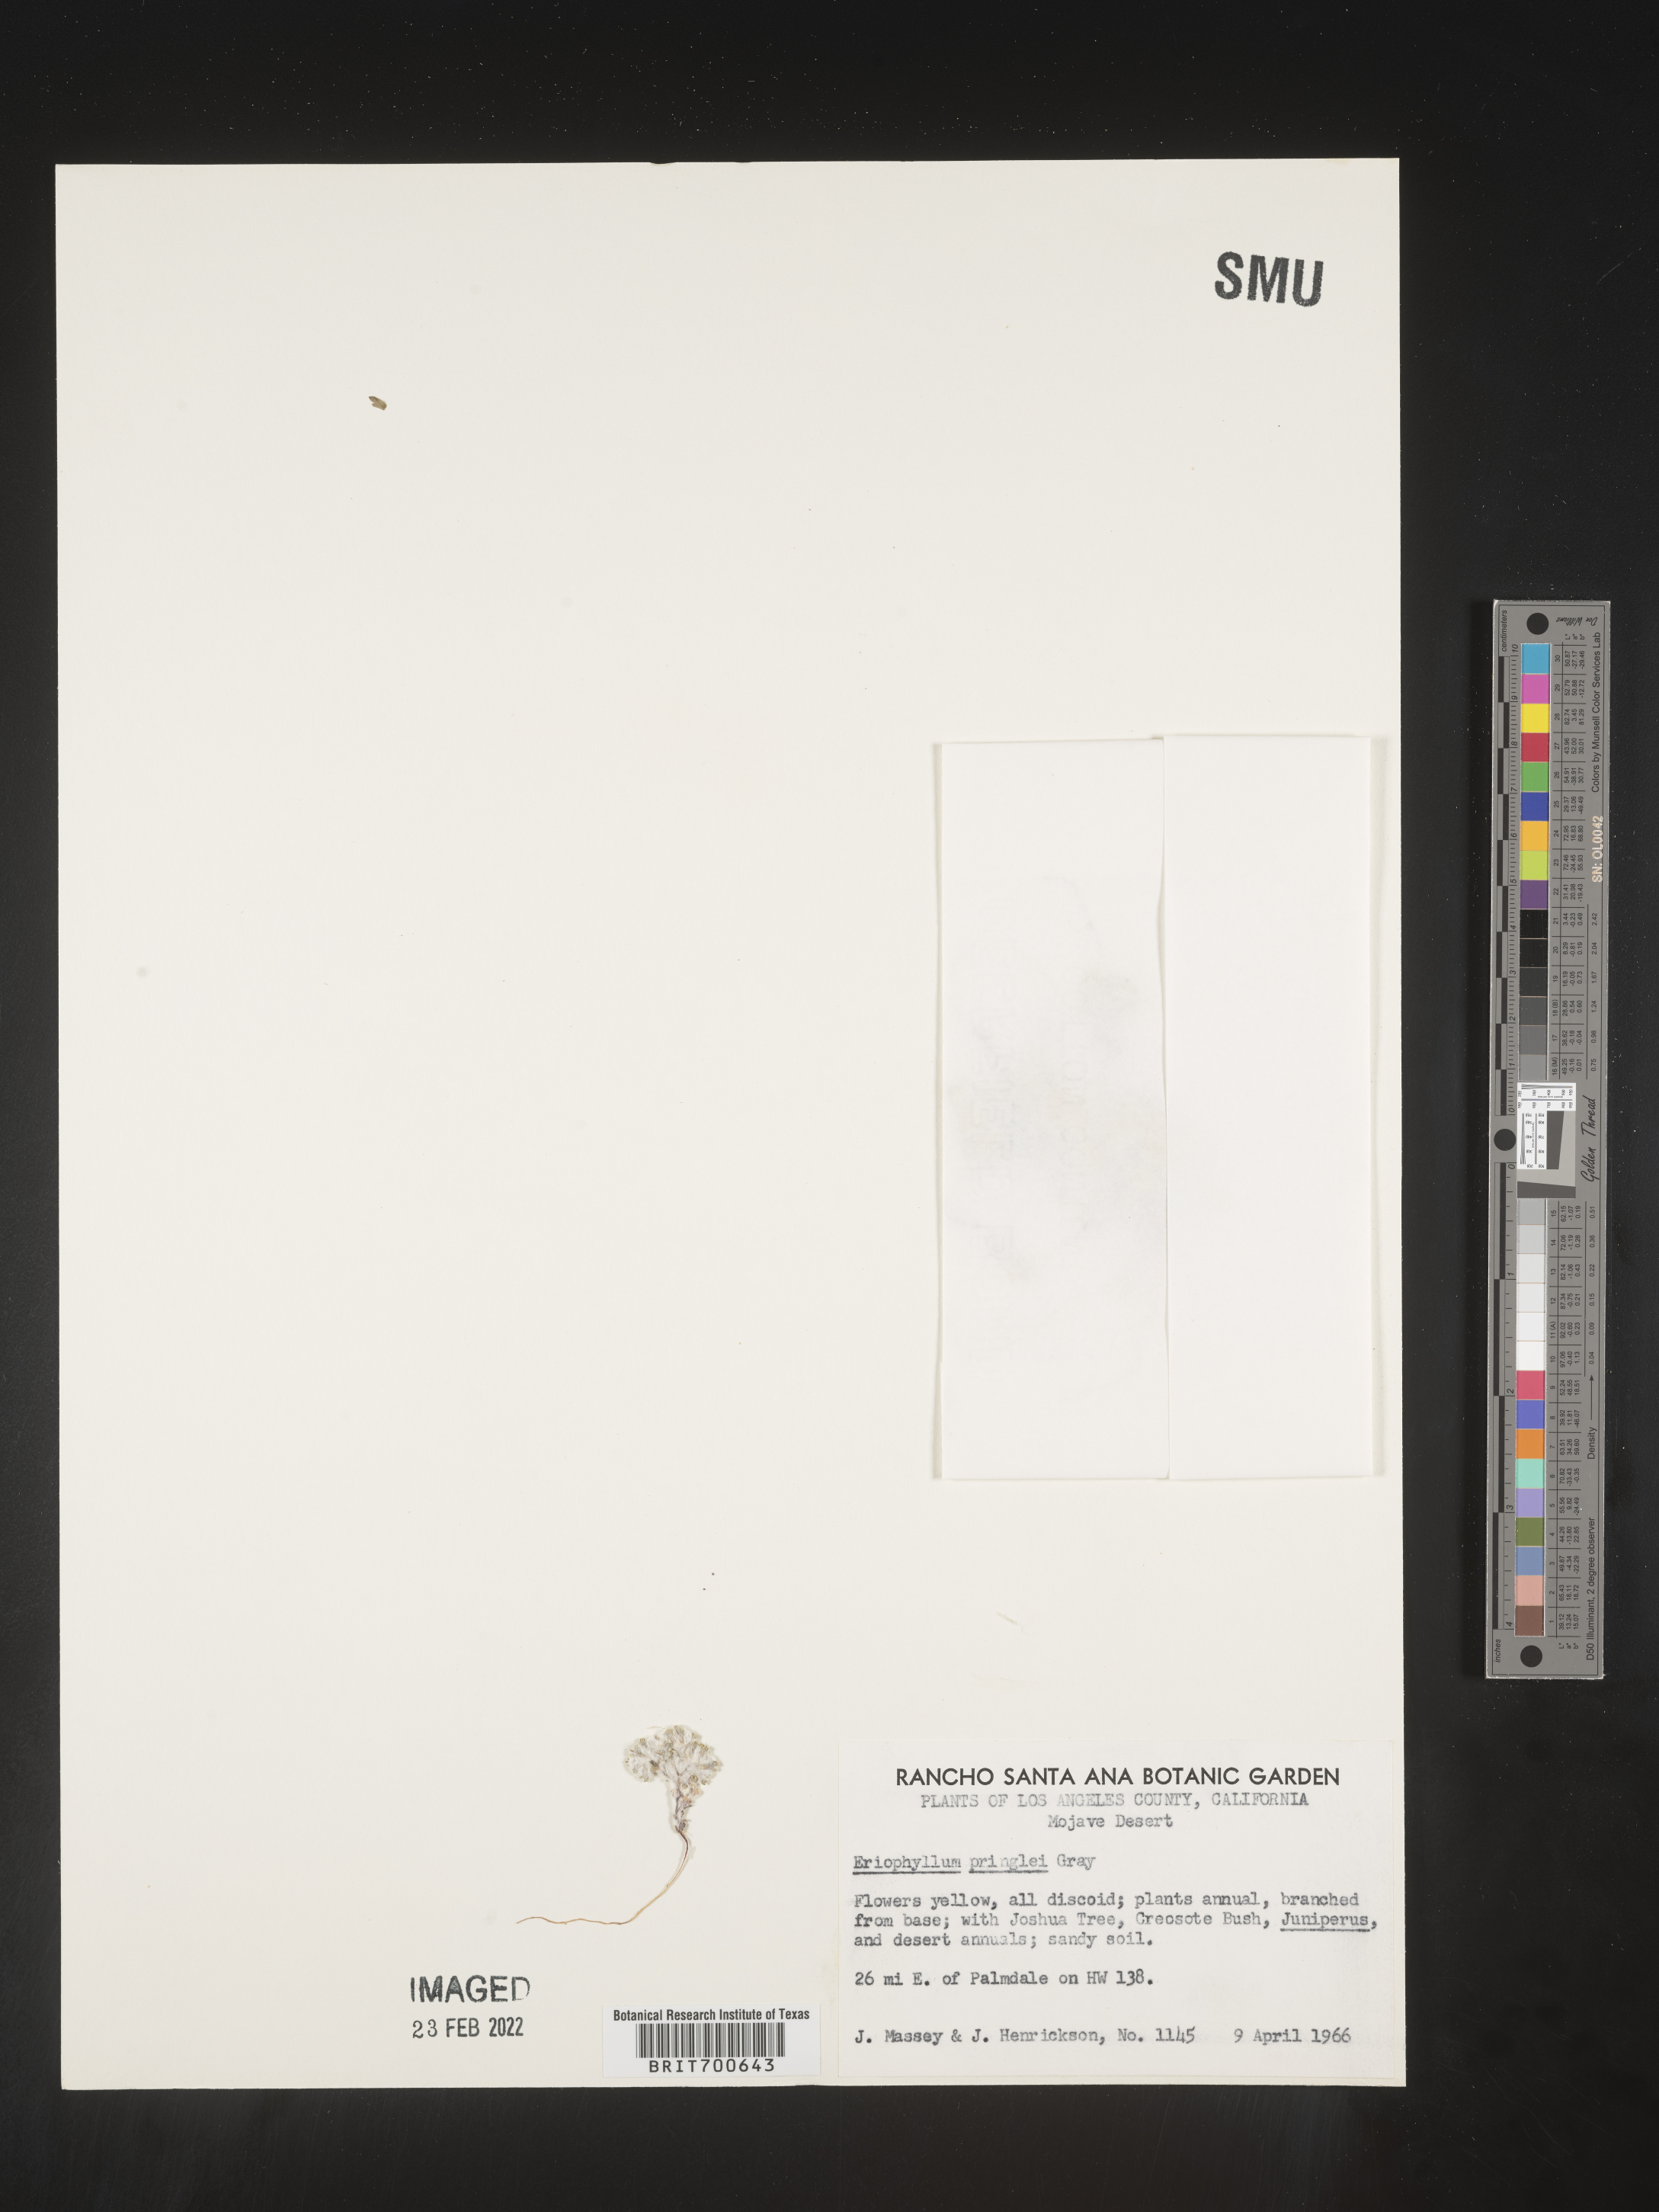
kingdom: Plantae
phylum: Tracheophyta
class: Magnoliopsida
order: Asterales
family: Asteraceae
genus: Eriophyllum
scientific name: Eriophyllum pringlei
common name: Pringle's woolly-sunflower
